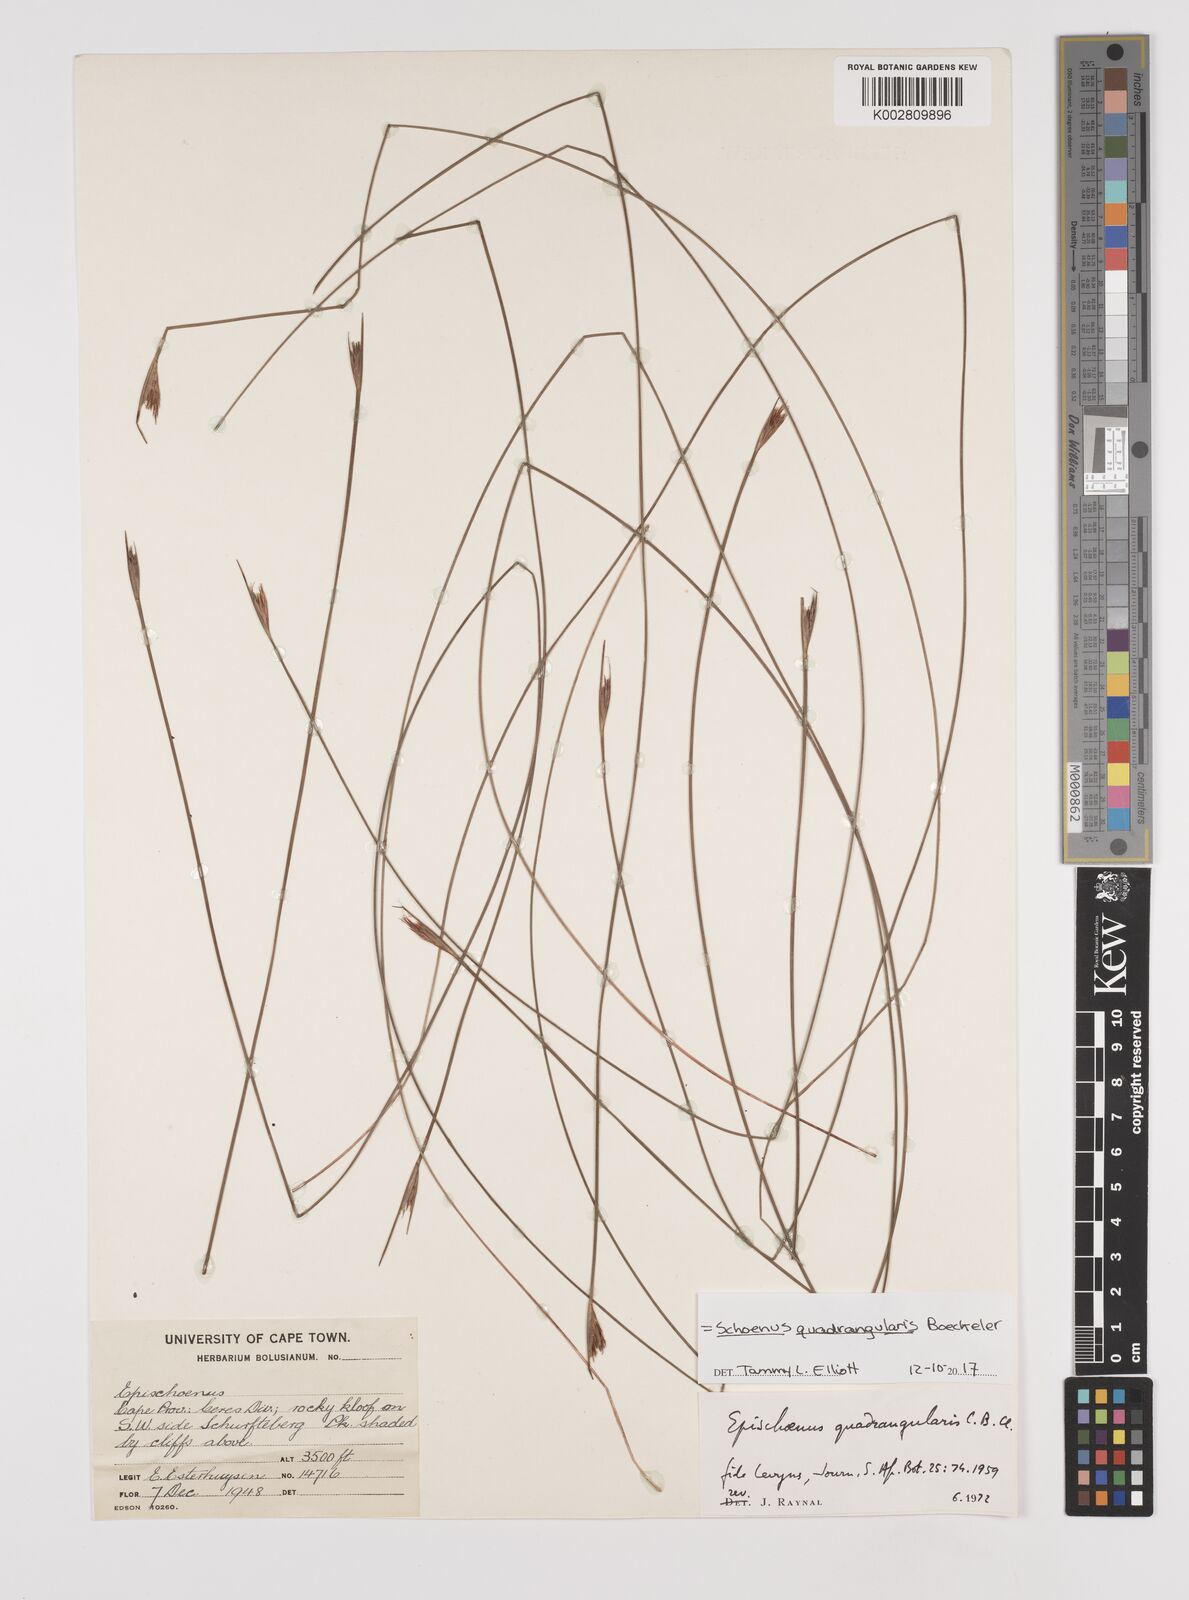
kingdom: Plantae
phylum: Tracheophyta
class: Liliopsida
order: Poales
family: Cyperaceae
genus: Schoenus
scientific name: Schoenus
